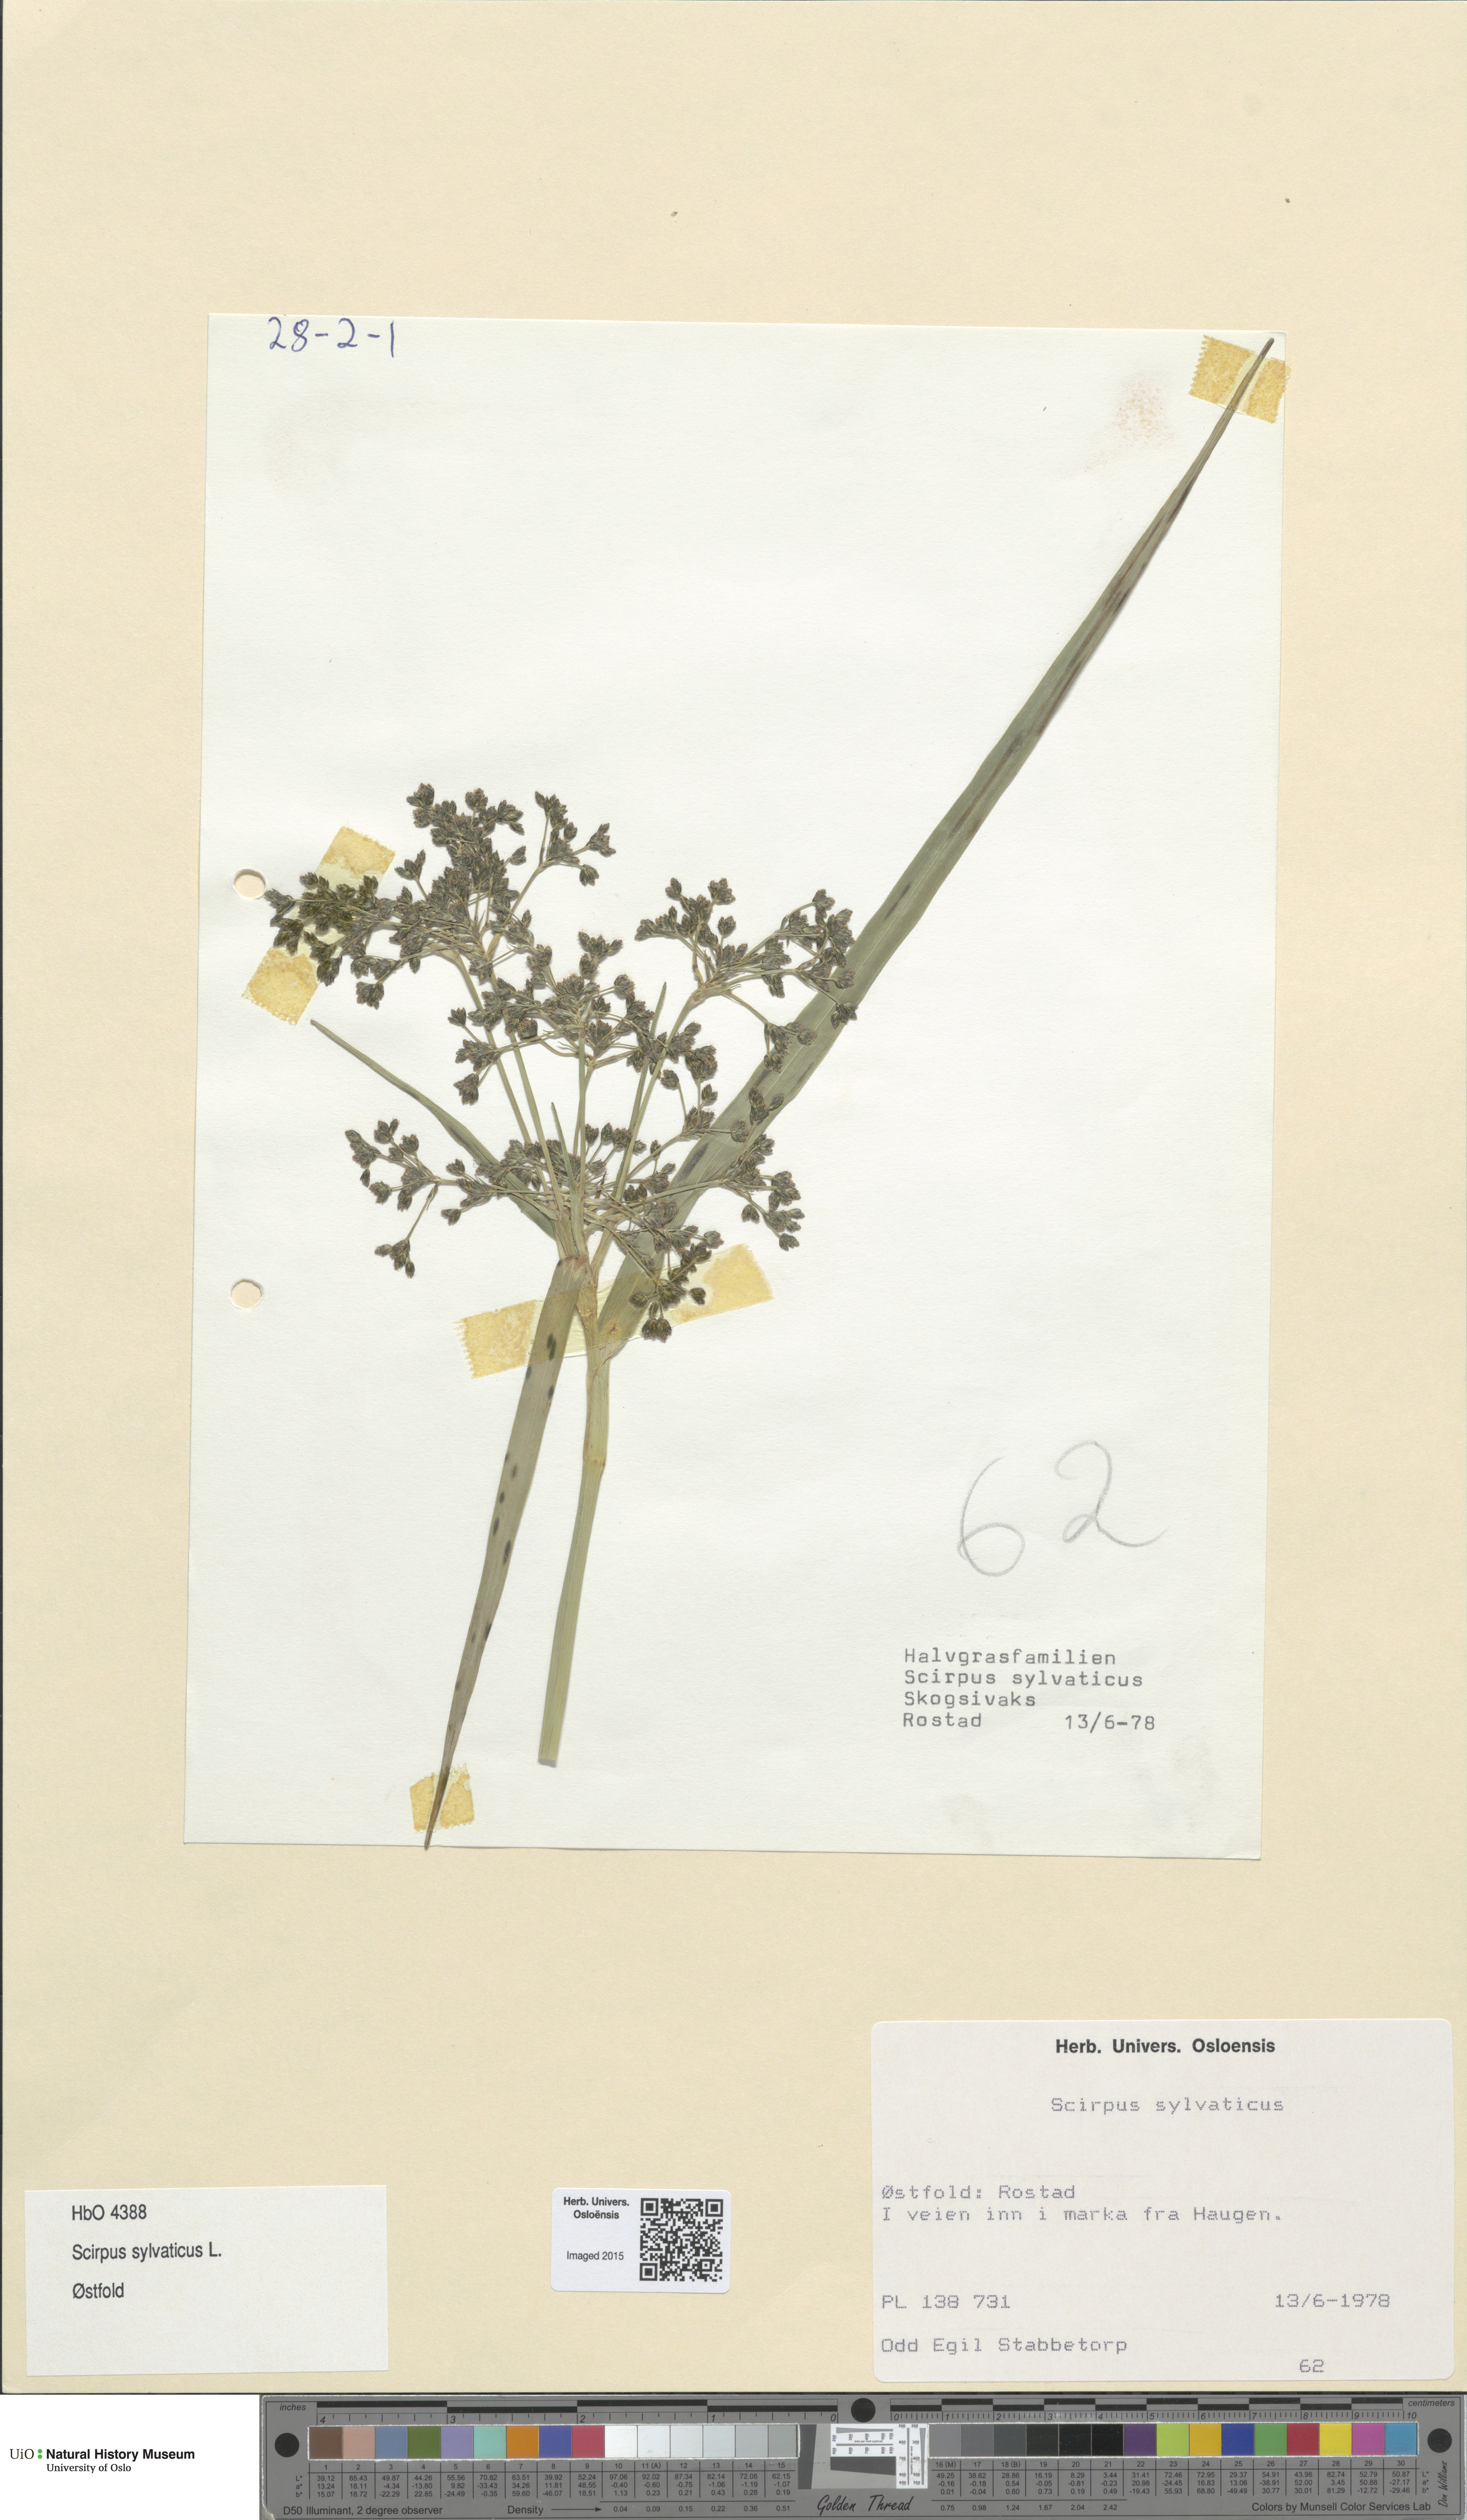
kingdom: Plantae
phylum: Tracheophyta
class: Liliopsida
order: Poales
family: Cyperaceae
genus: Scirpus
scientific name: Scirpus sylvaticus
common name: Wood club-rush
